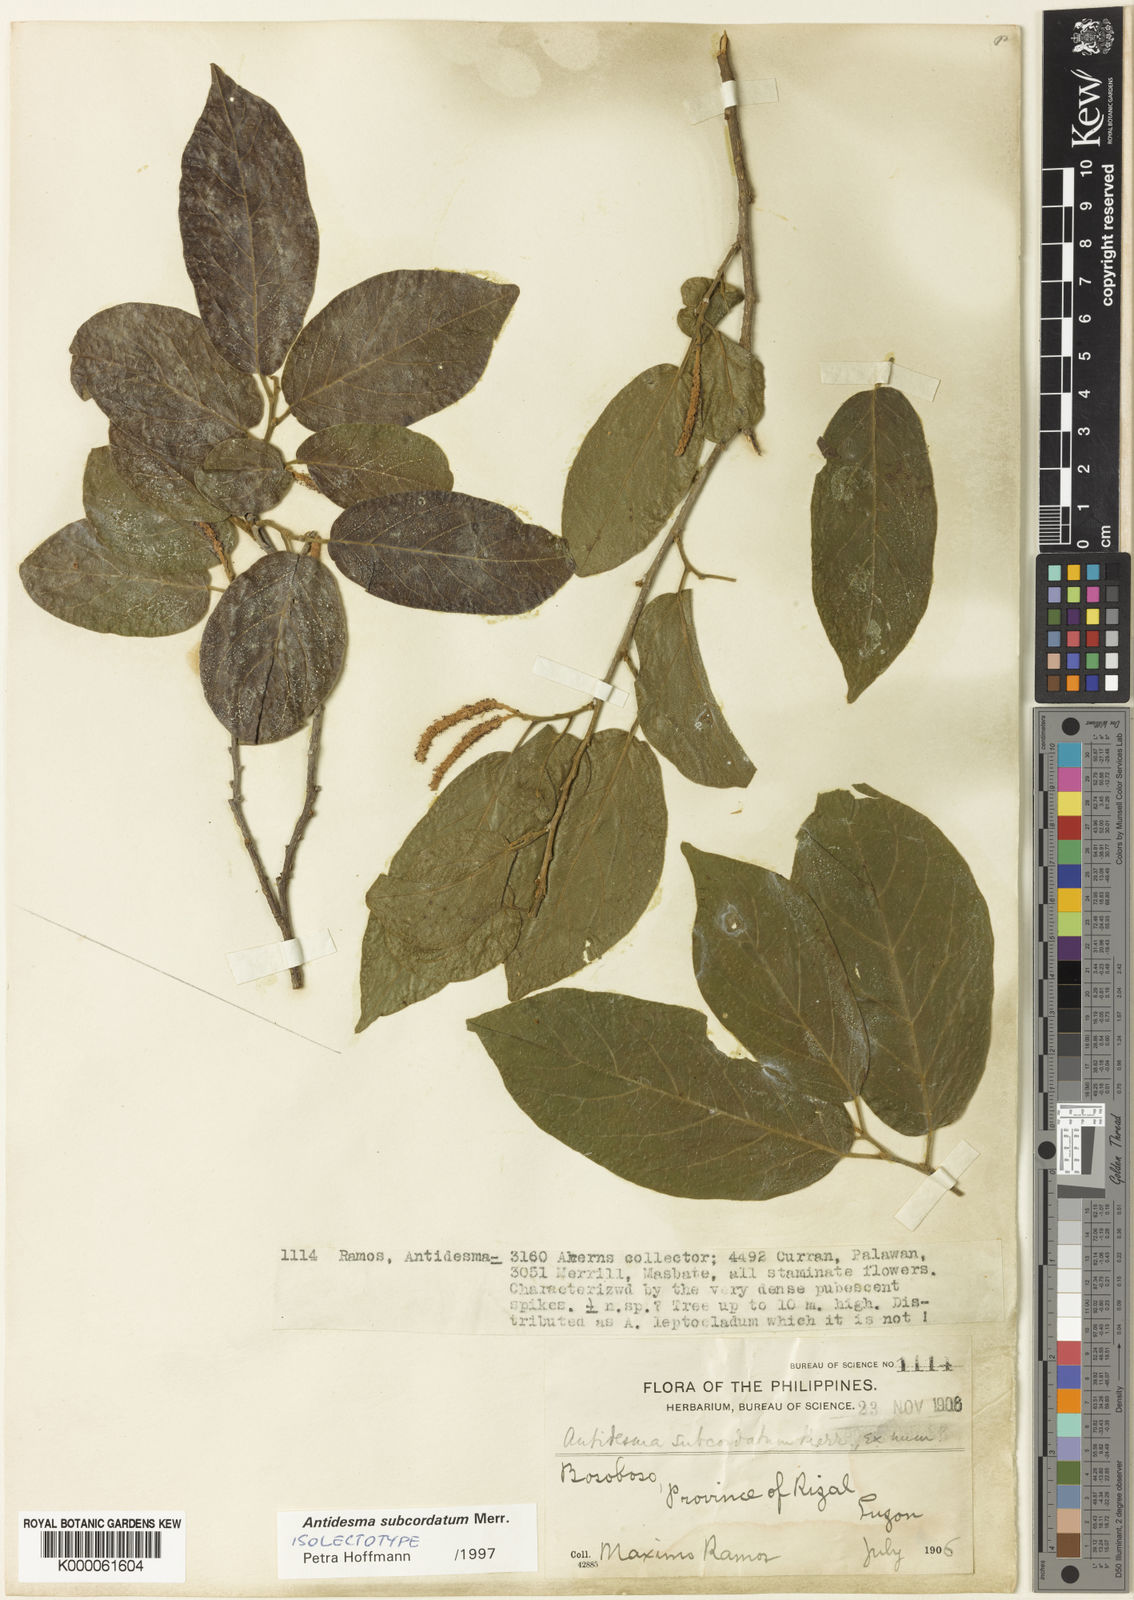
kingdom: Plantae
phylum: Tracheophyta
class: Magnoliopsida
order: Malpighiales
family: Phyllanthaceae
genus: Antidesma
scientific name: Antidesma tomentosum
